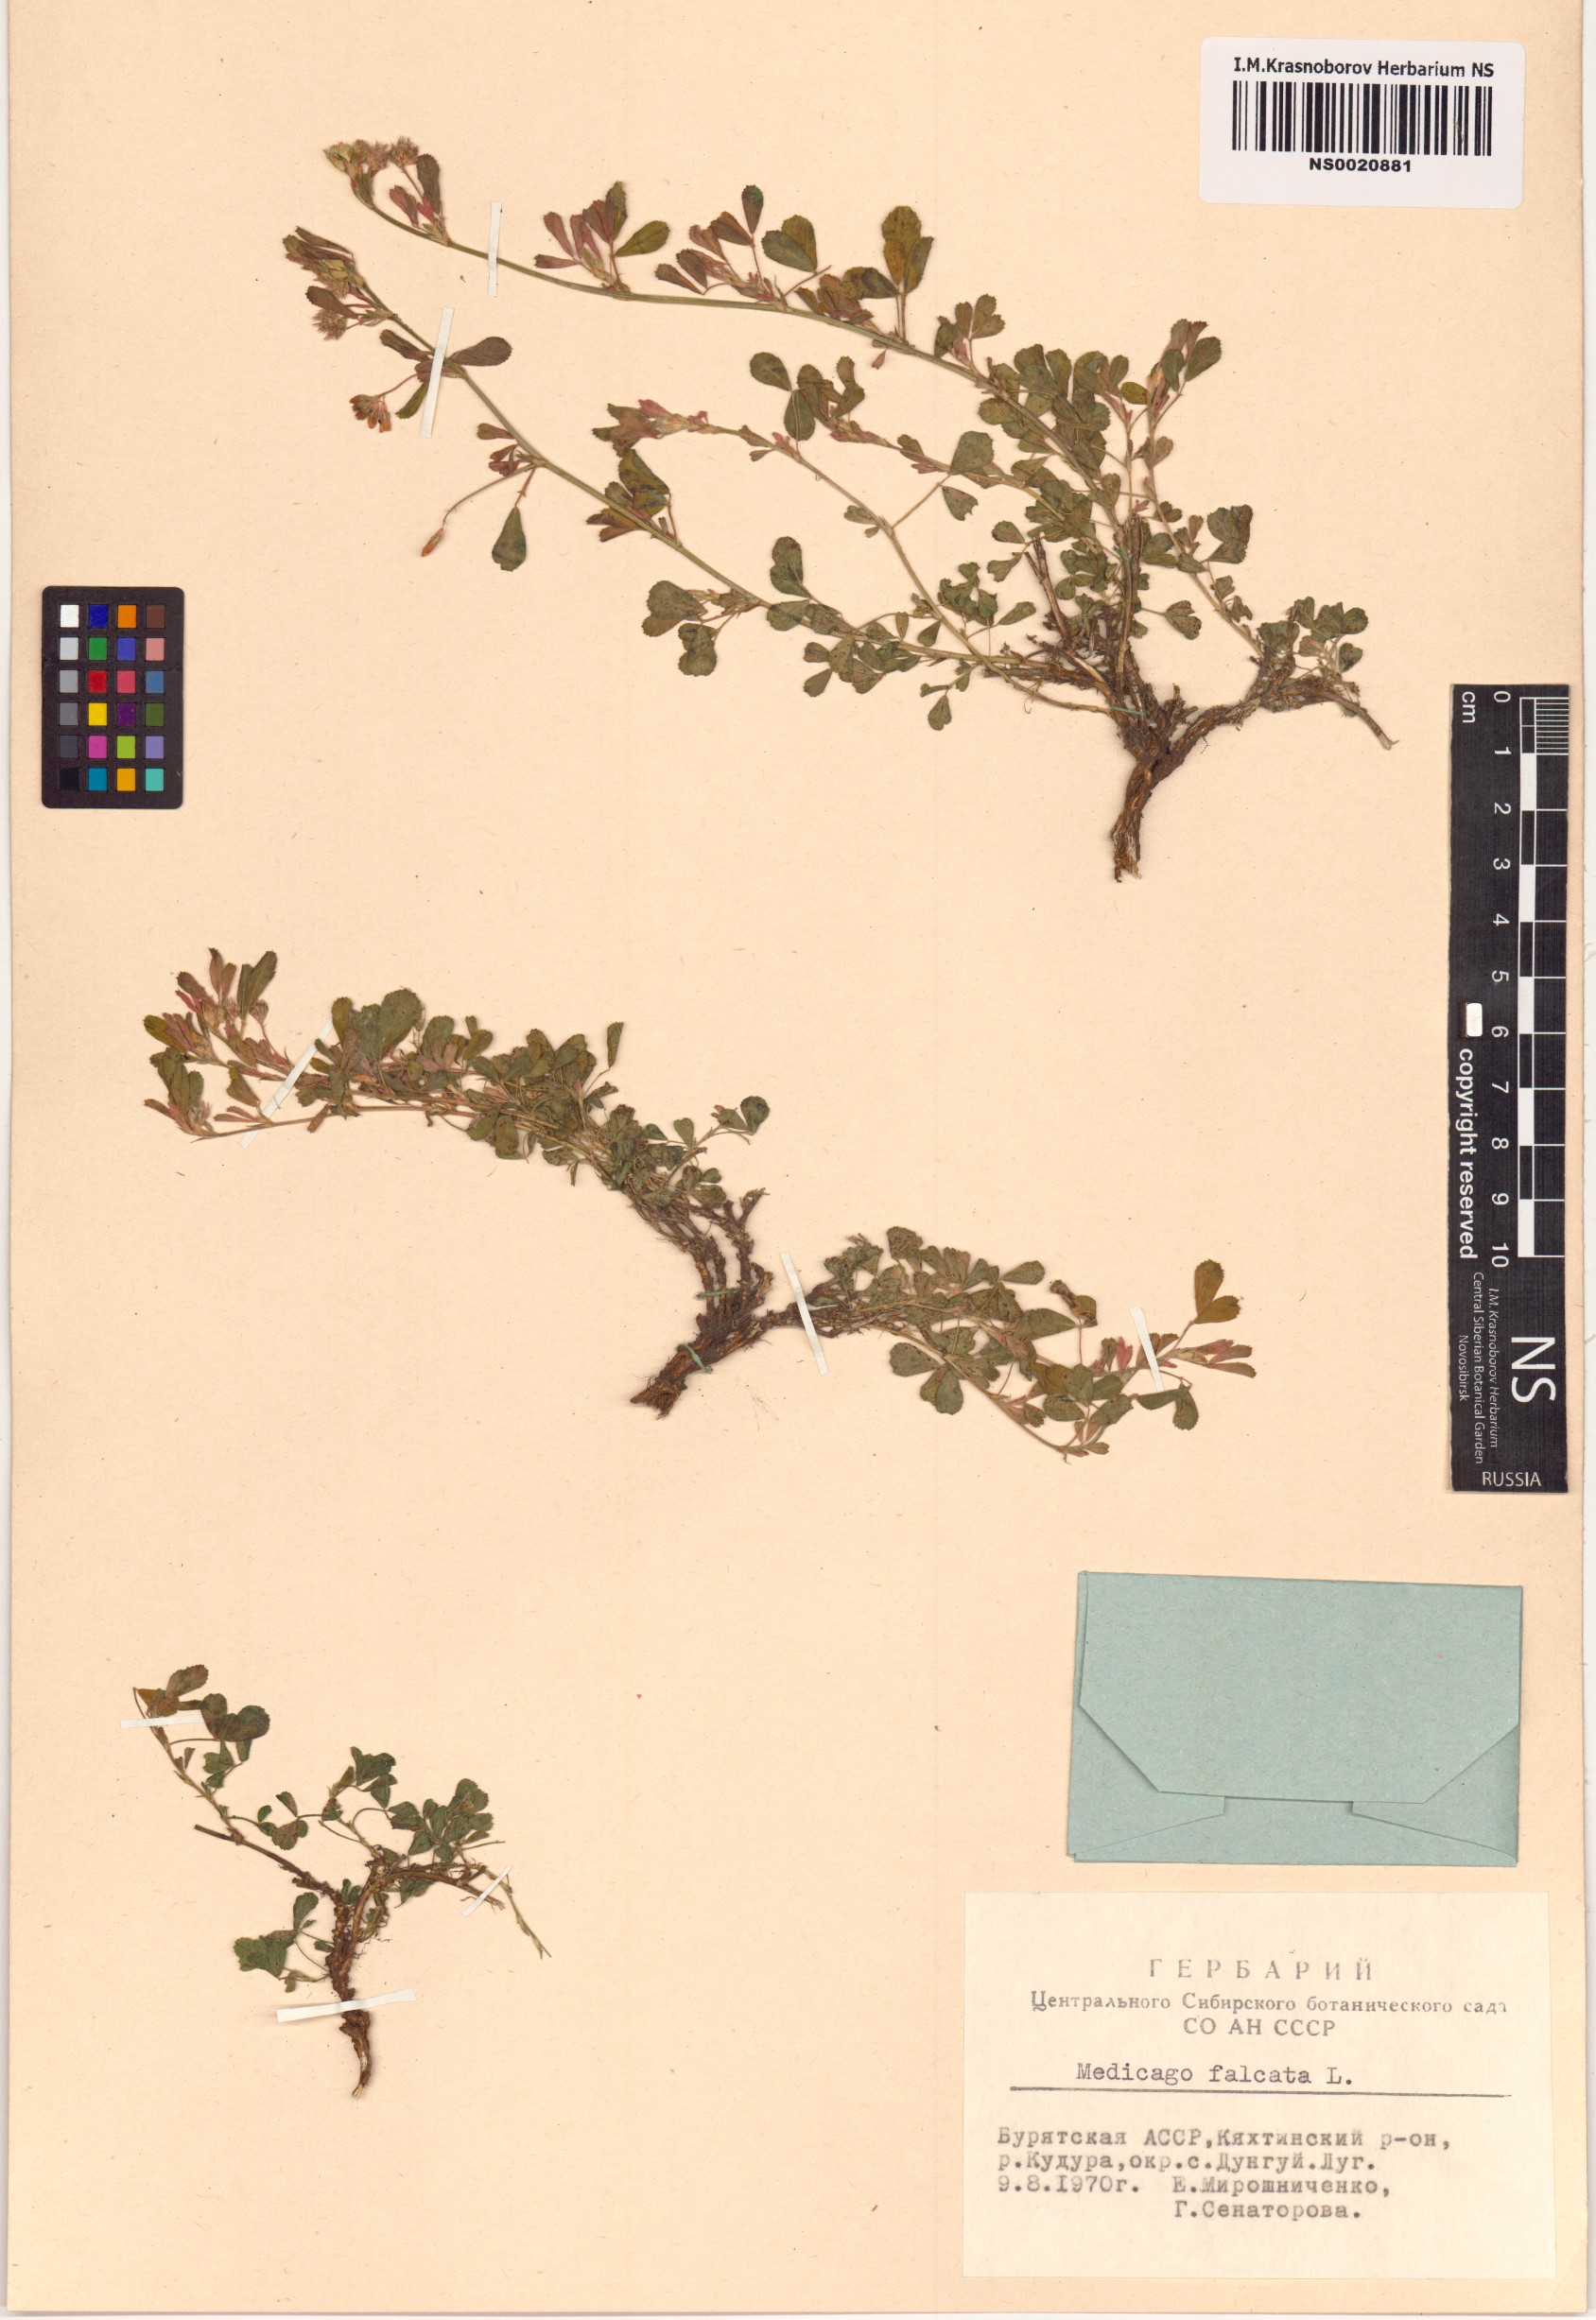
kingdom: Plantae
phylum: Tracheophyta
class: Magnoliopsida
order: Fabales
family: Fabaceae
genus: Medicago
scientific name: Medicago falcata
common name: Sickle medick
